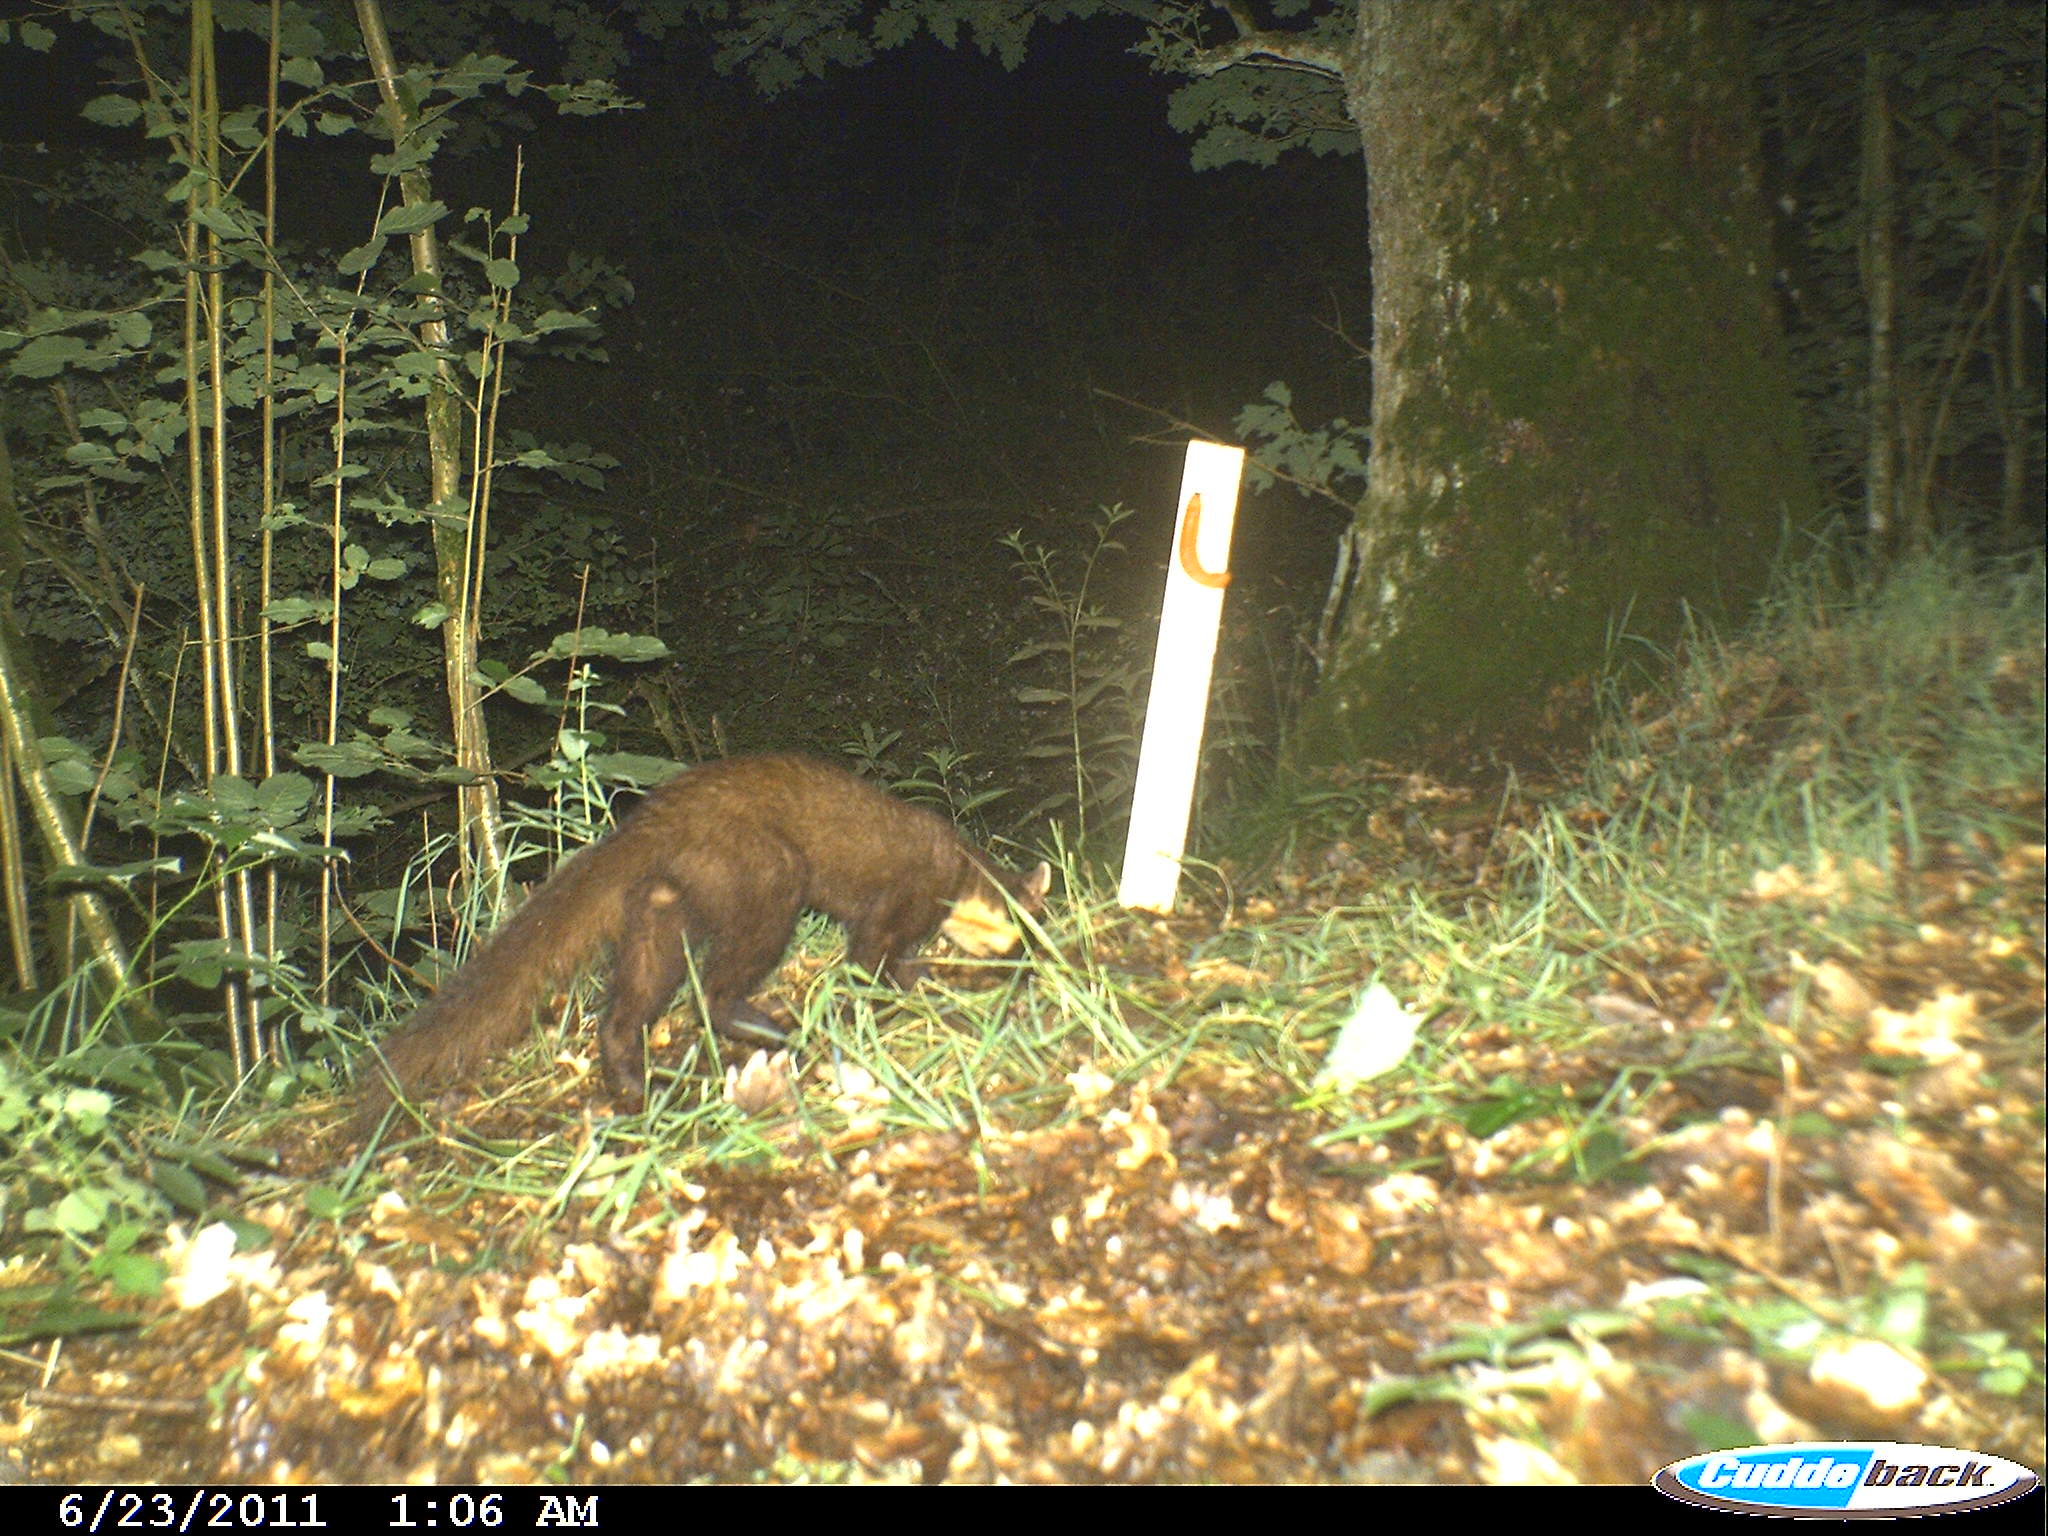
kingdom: Animalia
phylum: Chordata
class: Mammalia
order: Carnivora
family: Mustelidae
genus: Martes
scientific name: Martes martes
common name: European pine marten
